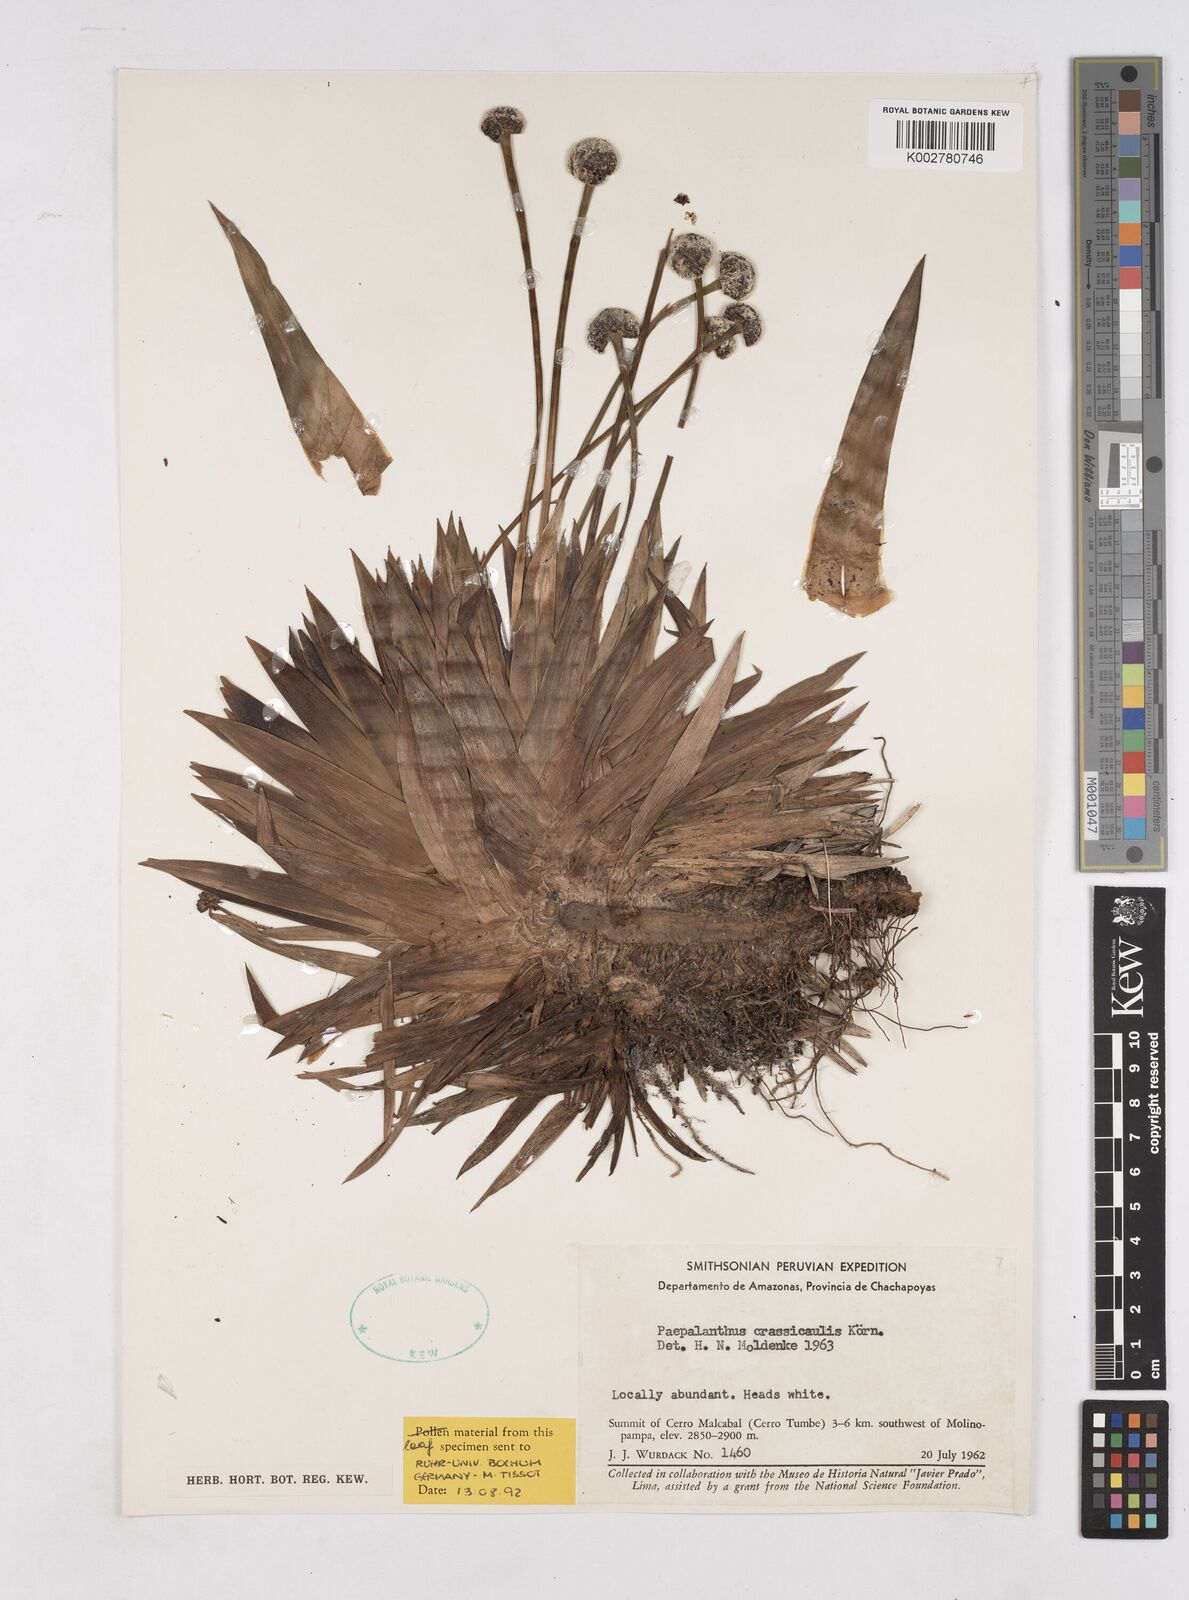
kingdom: Plantae
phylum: Tracheophyta
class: Liliopsida
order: Poales
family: Eriocaulaceae
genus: Paepalanthus
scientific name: Paepalanthus crassicaulis
